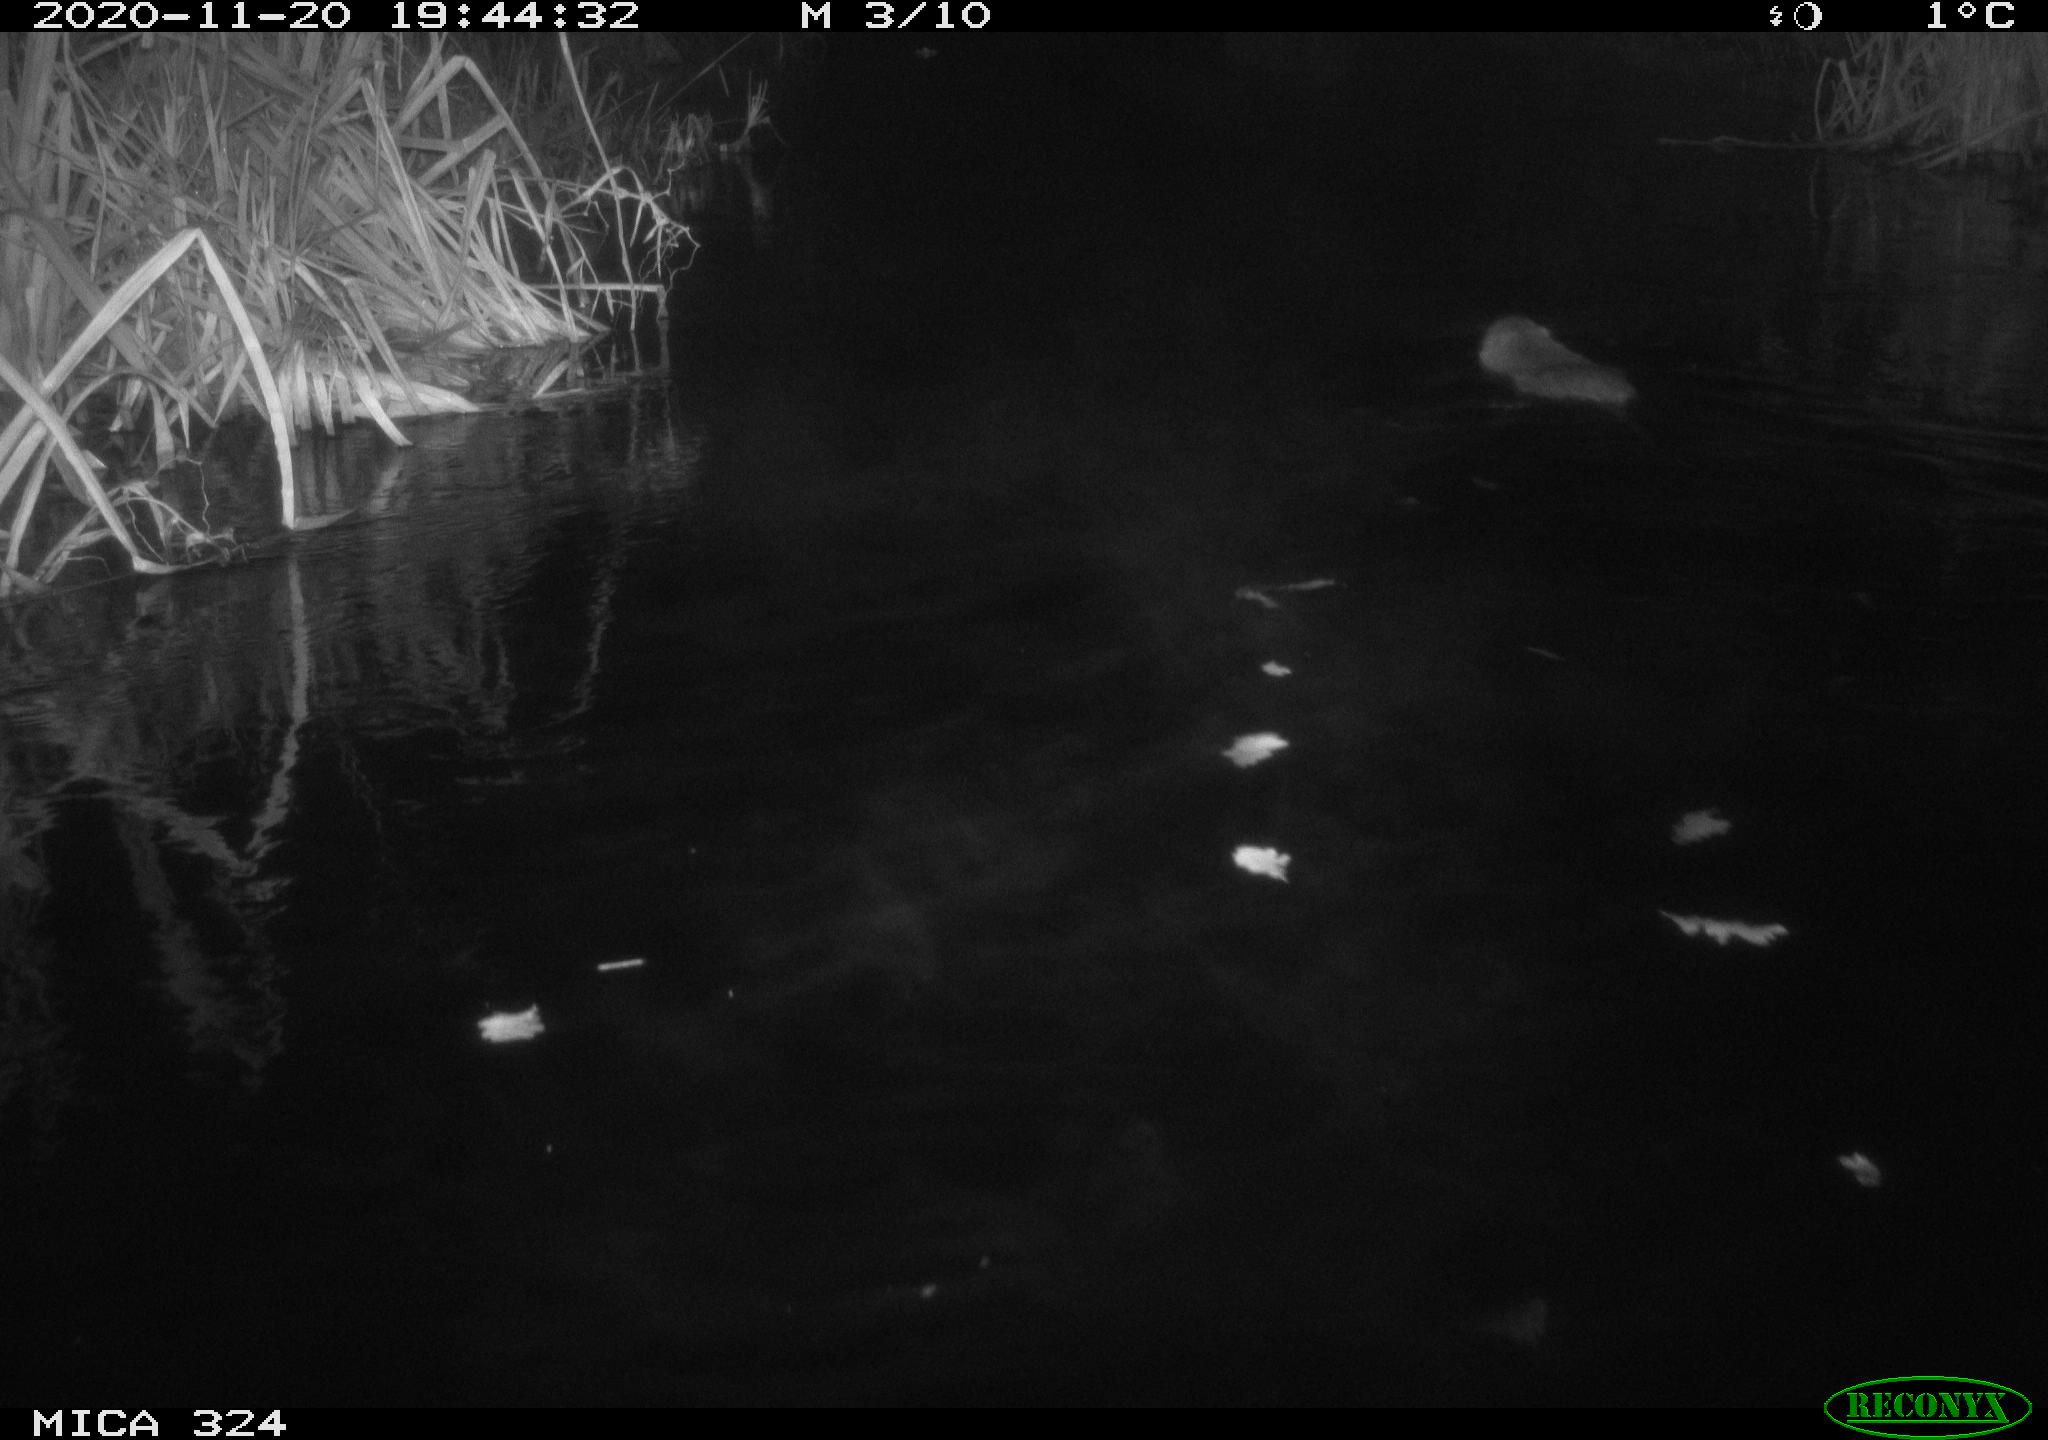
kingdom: Animalia
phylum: Chordata
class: Mammalia
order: Rodentia
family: Myocastoridae
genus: Myocastor
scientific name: Myocastor coypus
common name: Coypu
